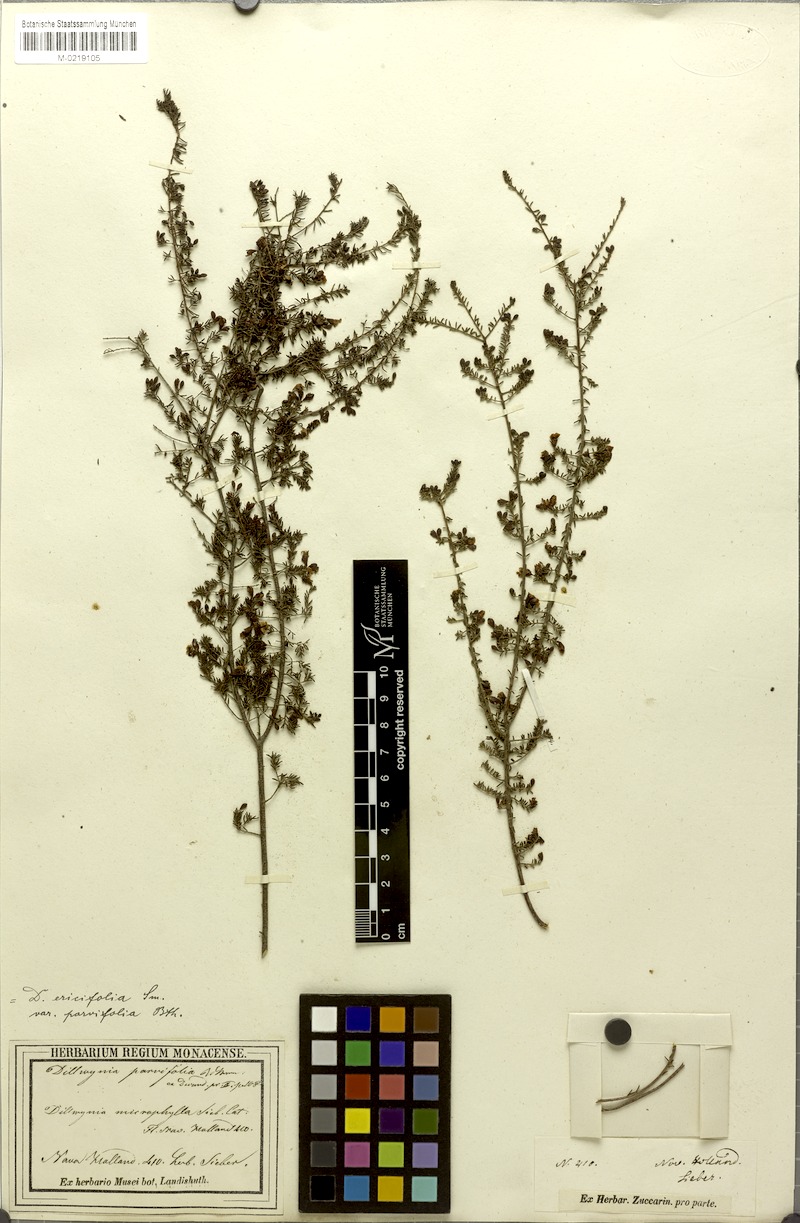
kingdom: Plantae
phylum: Tracheophyta
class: Magnoliopsida
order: Fabales
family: Fabaceae
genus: Dillwynia
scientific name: Dillwynia parvifolia
